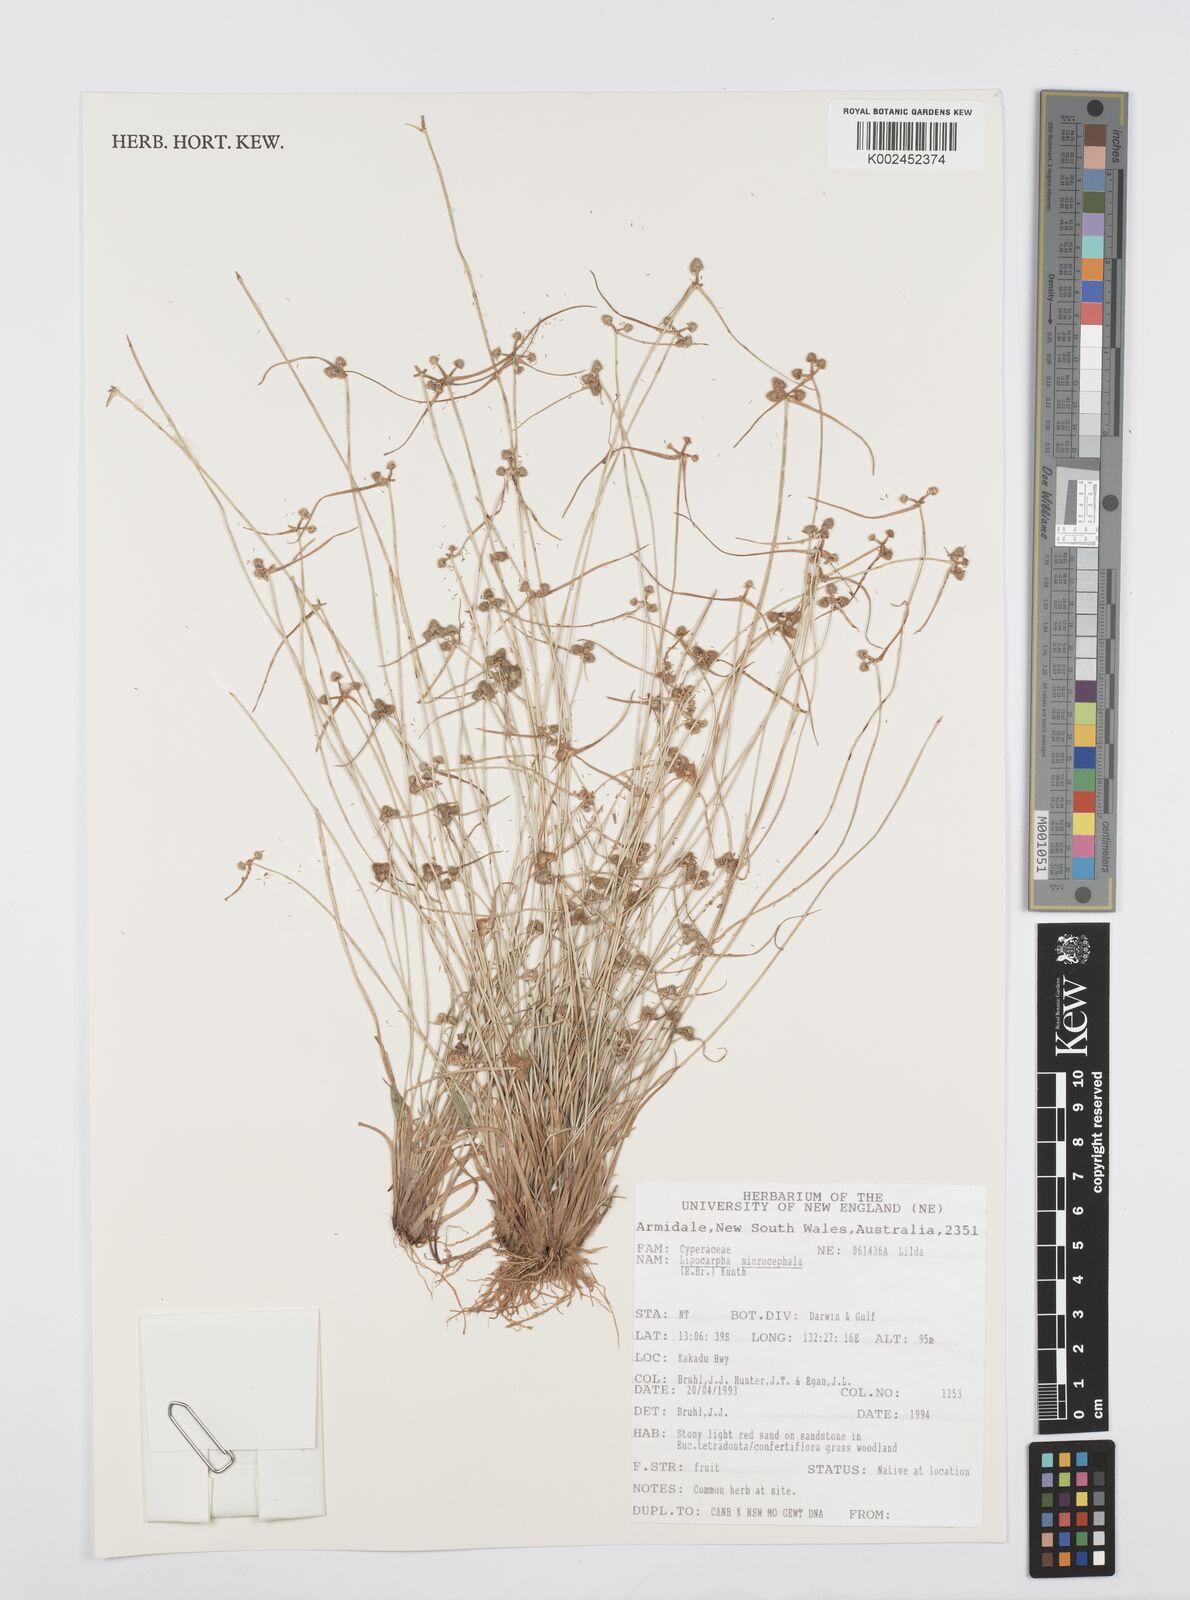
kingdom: Plantae
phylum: Tracheophyta
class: Liliopsida
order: Poales
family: Cyperaceae
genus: Cyperus
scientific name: Cyperus microcephalus
